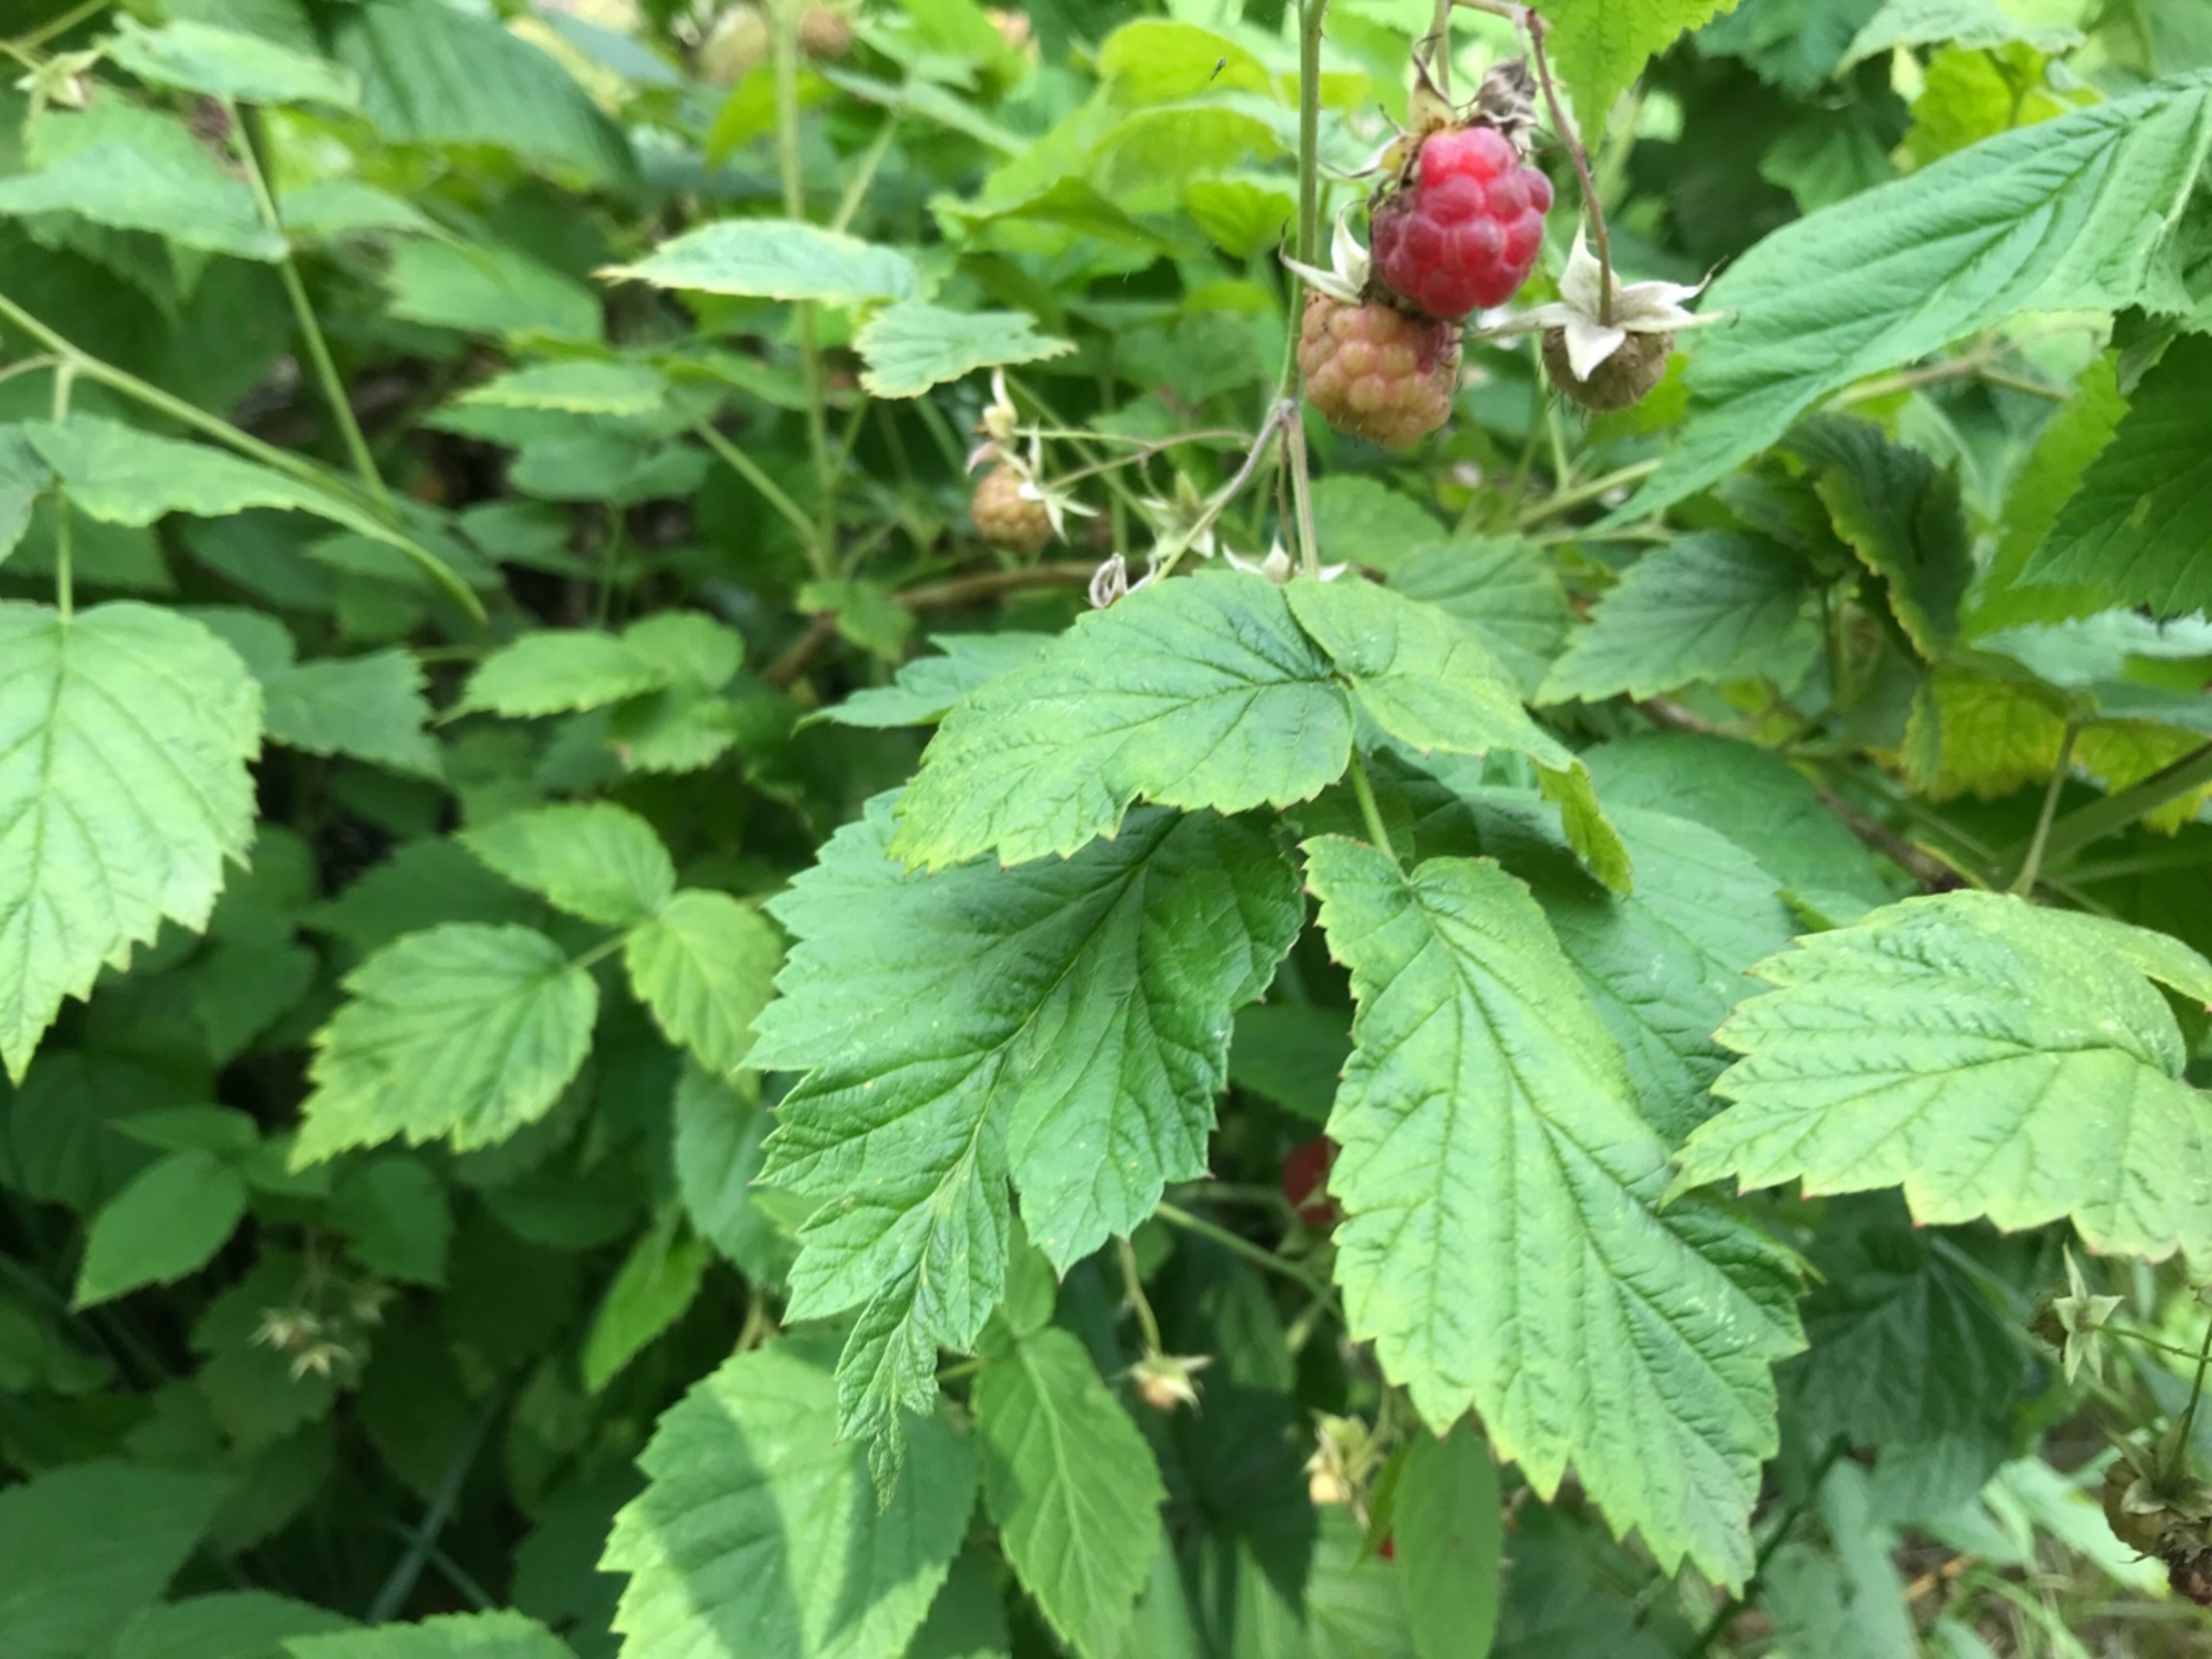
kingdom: Plantae
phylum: Tracheophyta
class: Magnoliopsida
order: Rosales
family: Rosaceae
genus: Rubus
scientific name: Rubus idaeus
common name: Hindbær
